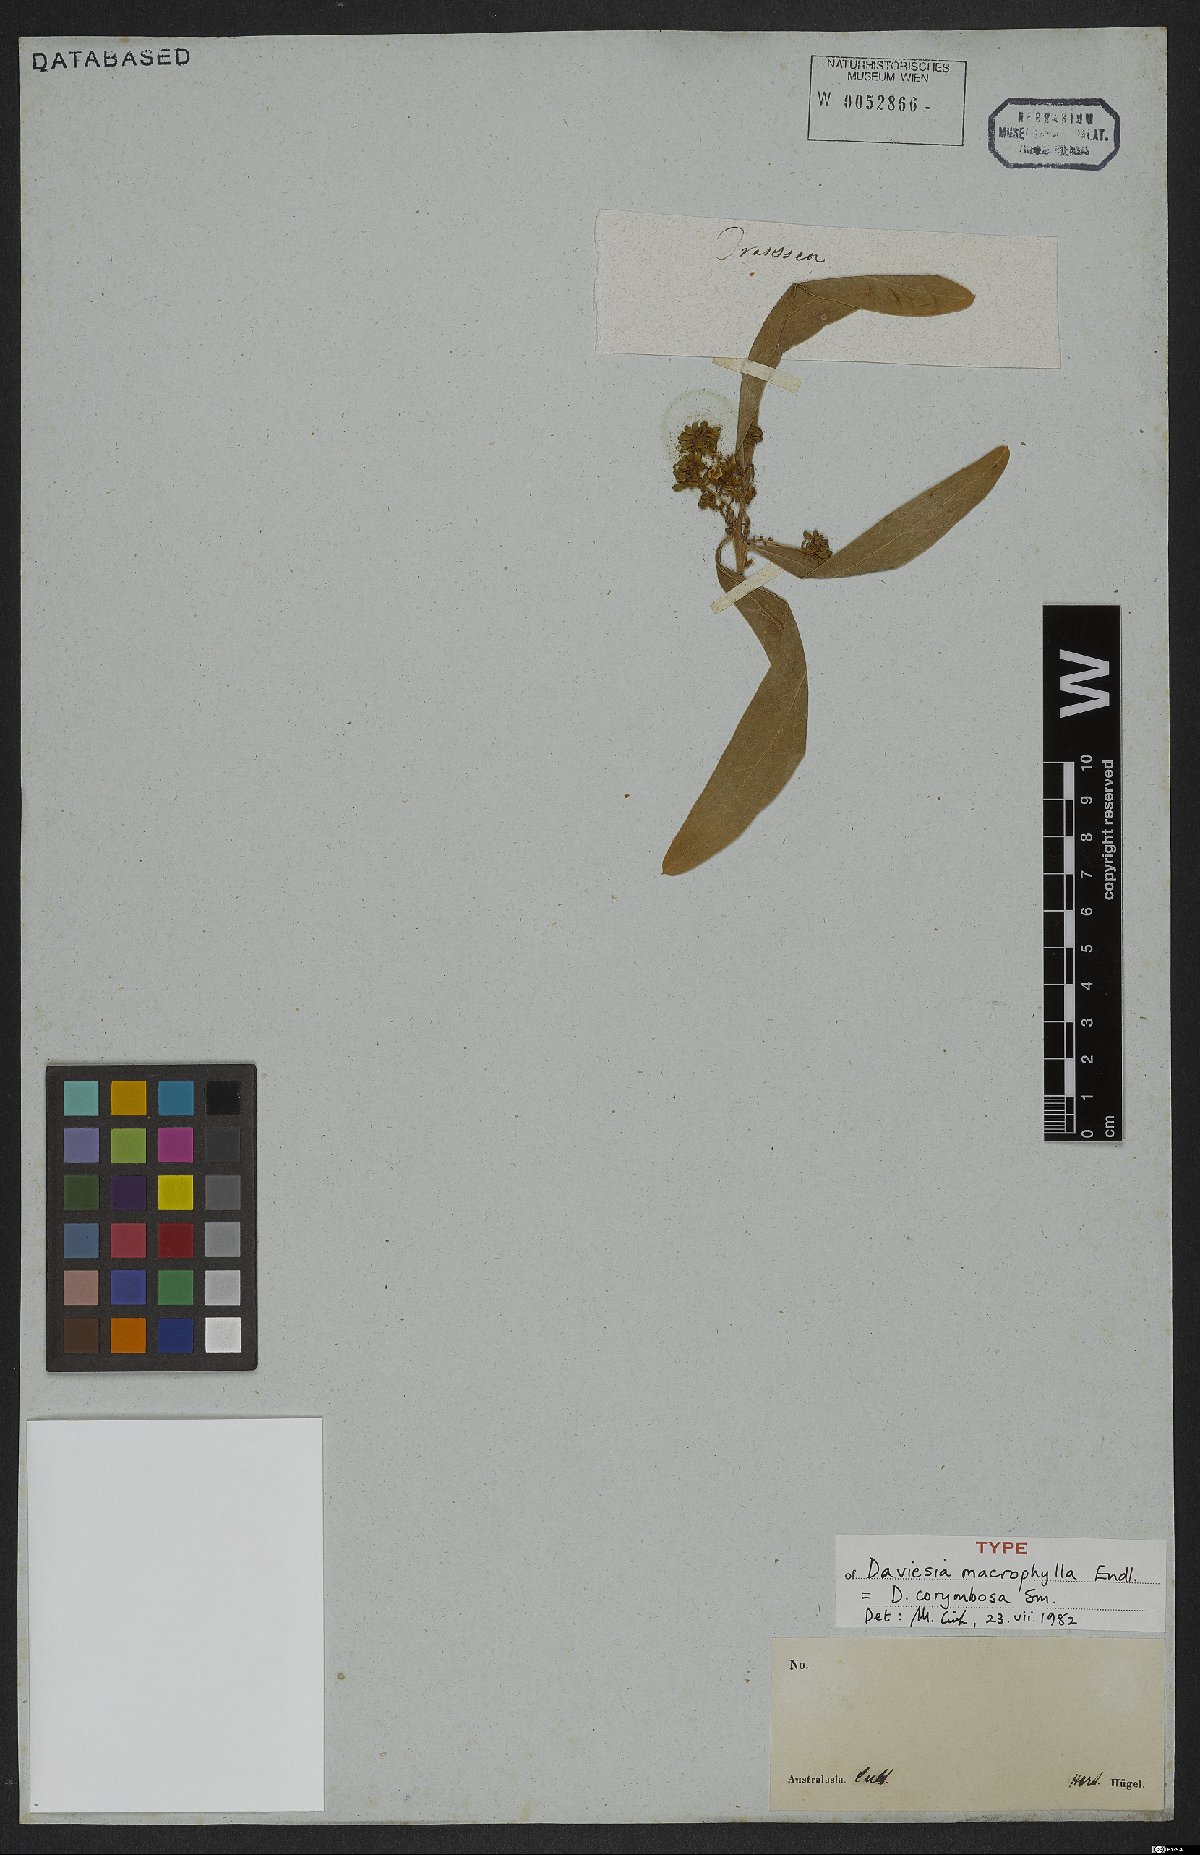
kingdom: Plantae
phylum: Tracheophyta
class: Magnoliopsida
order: Fabales
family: Fabaceae
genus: Daviesia
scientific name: Daviesia corymbosa
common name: Narrow-leaf bitter-pea
